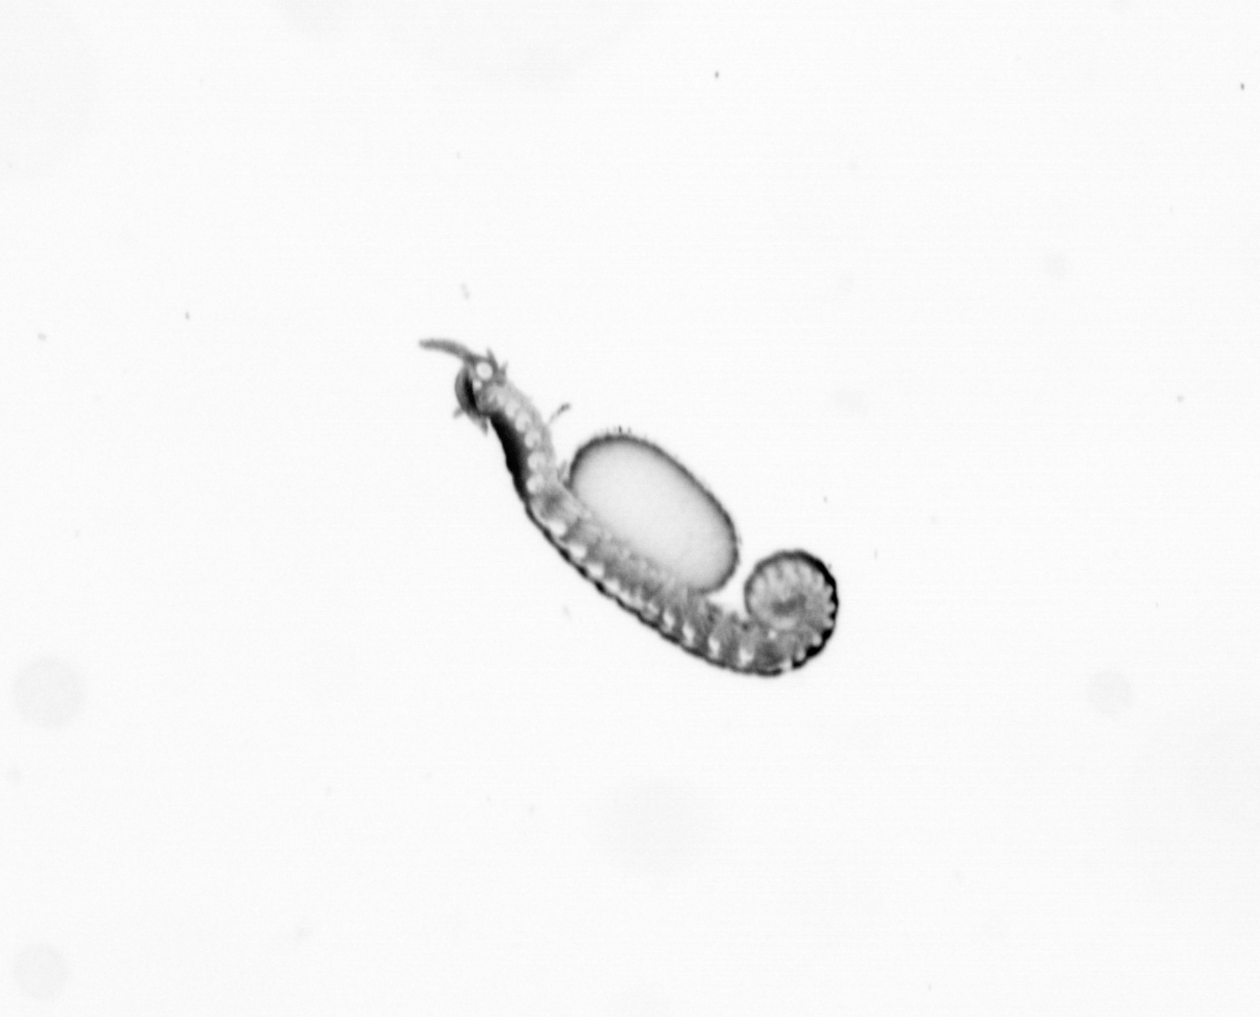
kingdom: Animalia
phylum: Annelida
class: Polychaeta
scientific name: Polychaeta
